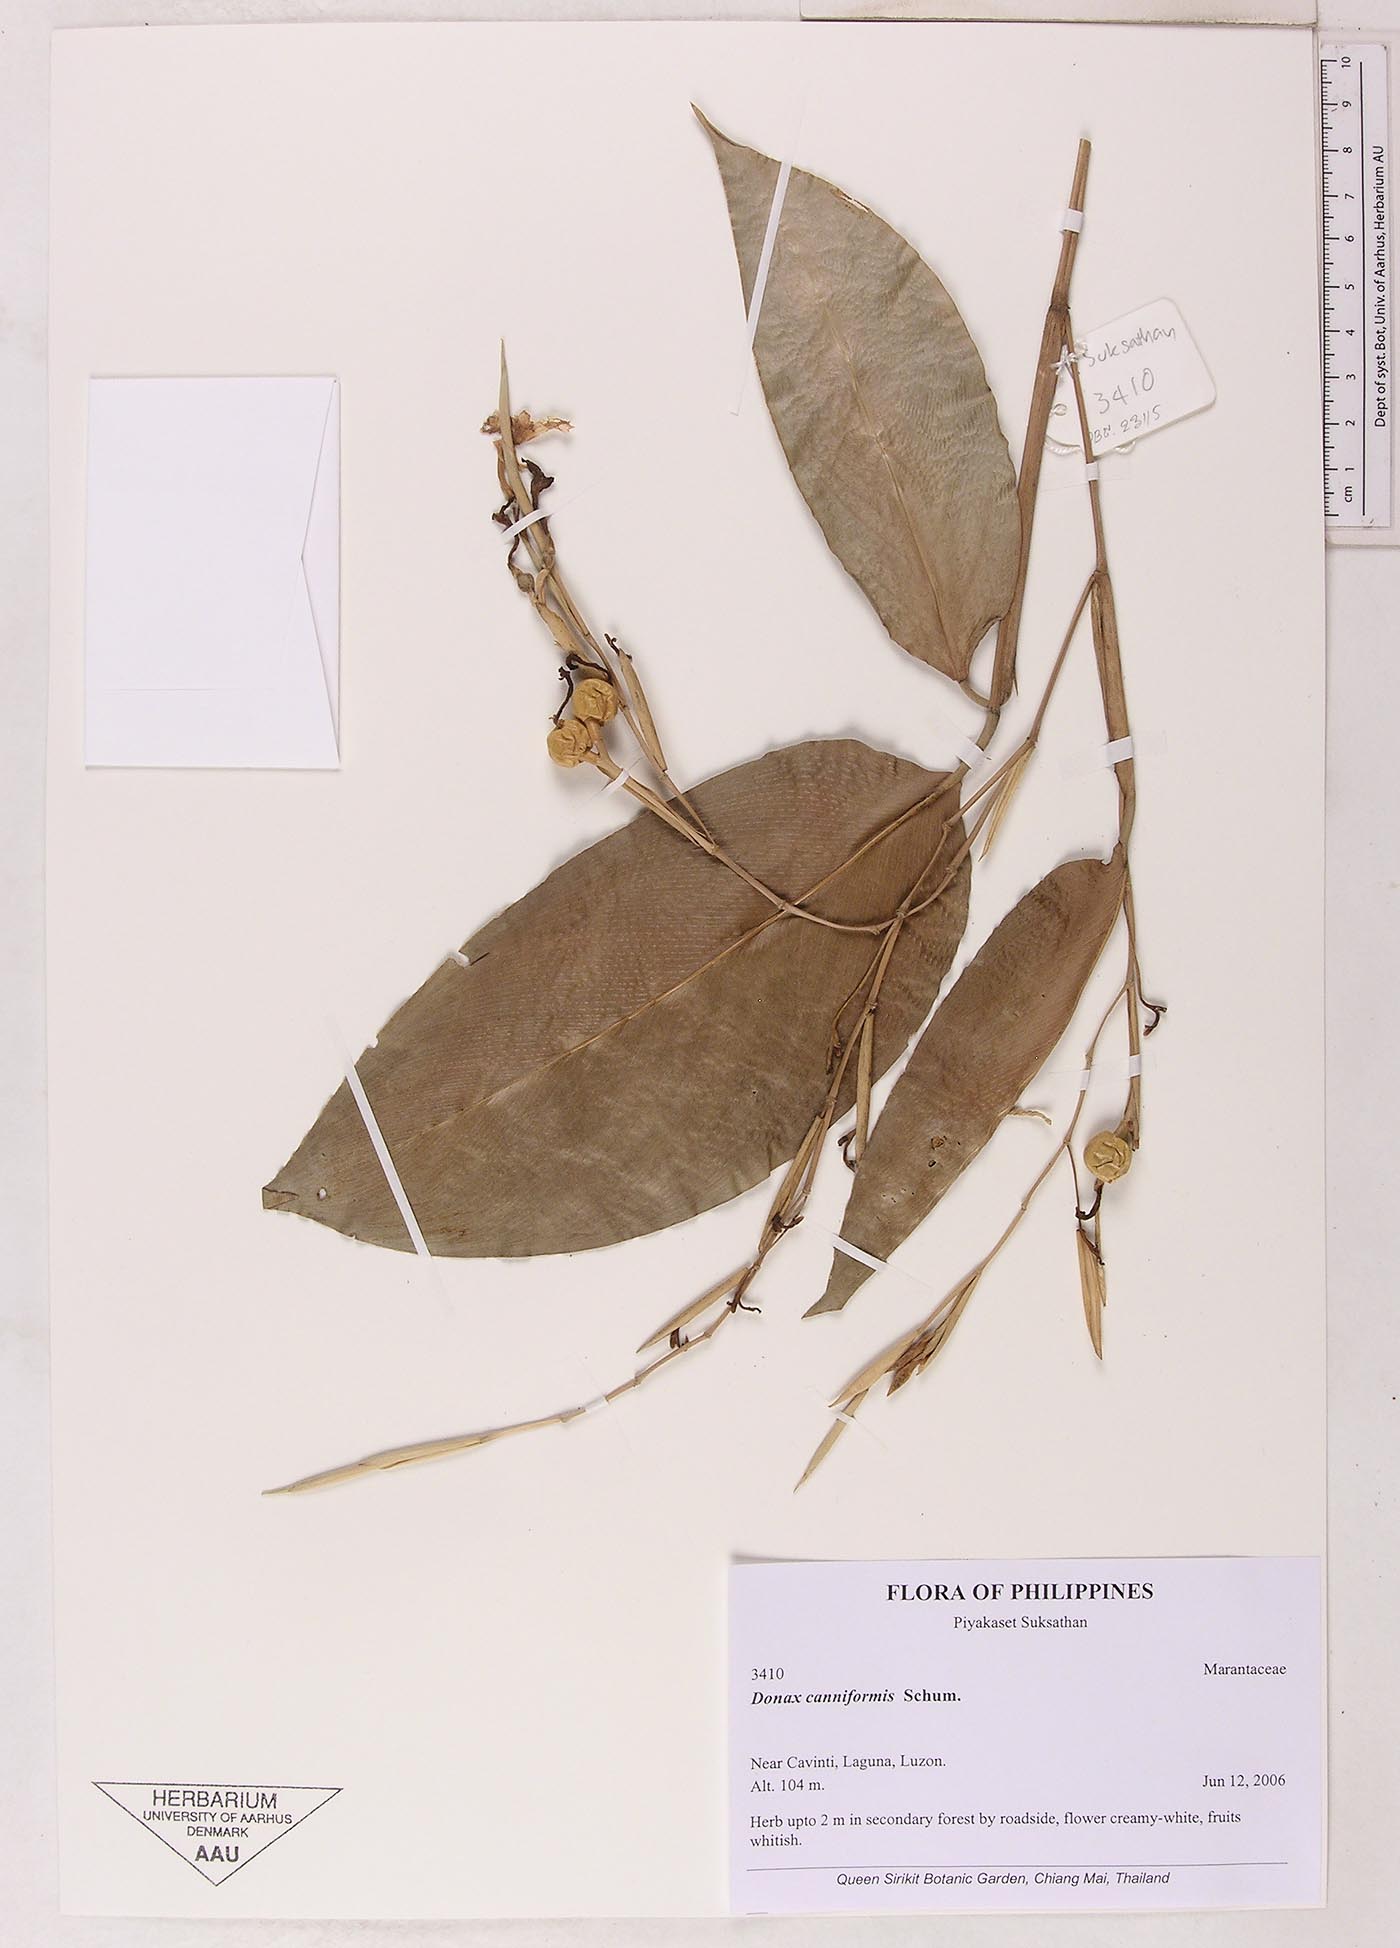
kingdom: Plantae
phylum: Tracheophyta
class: Liliopsida
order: Zingiberales
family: Marantaceae
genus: Donax
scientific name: Donax canniformis
